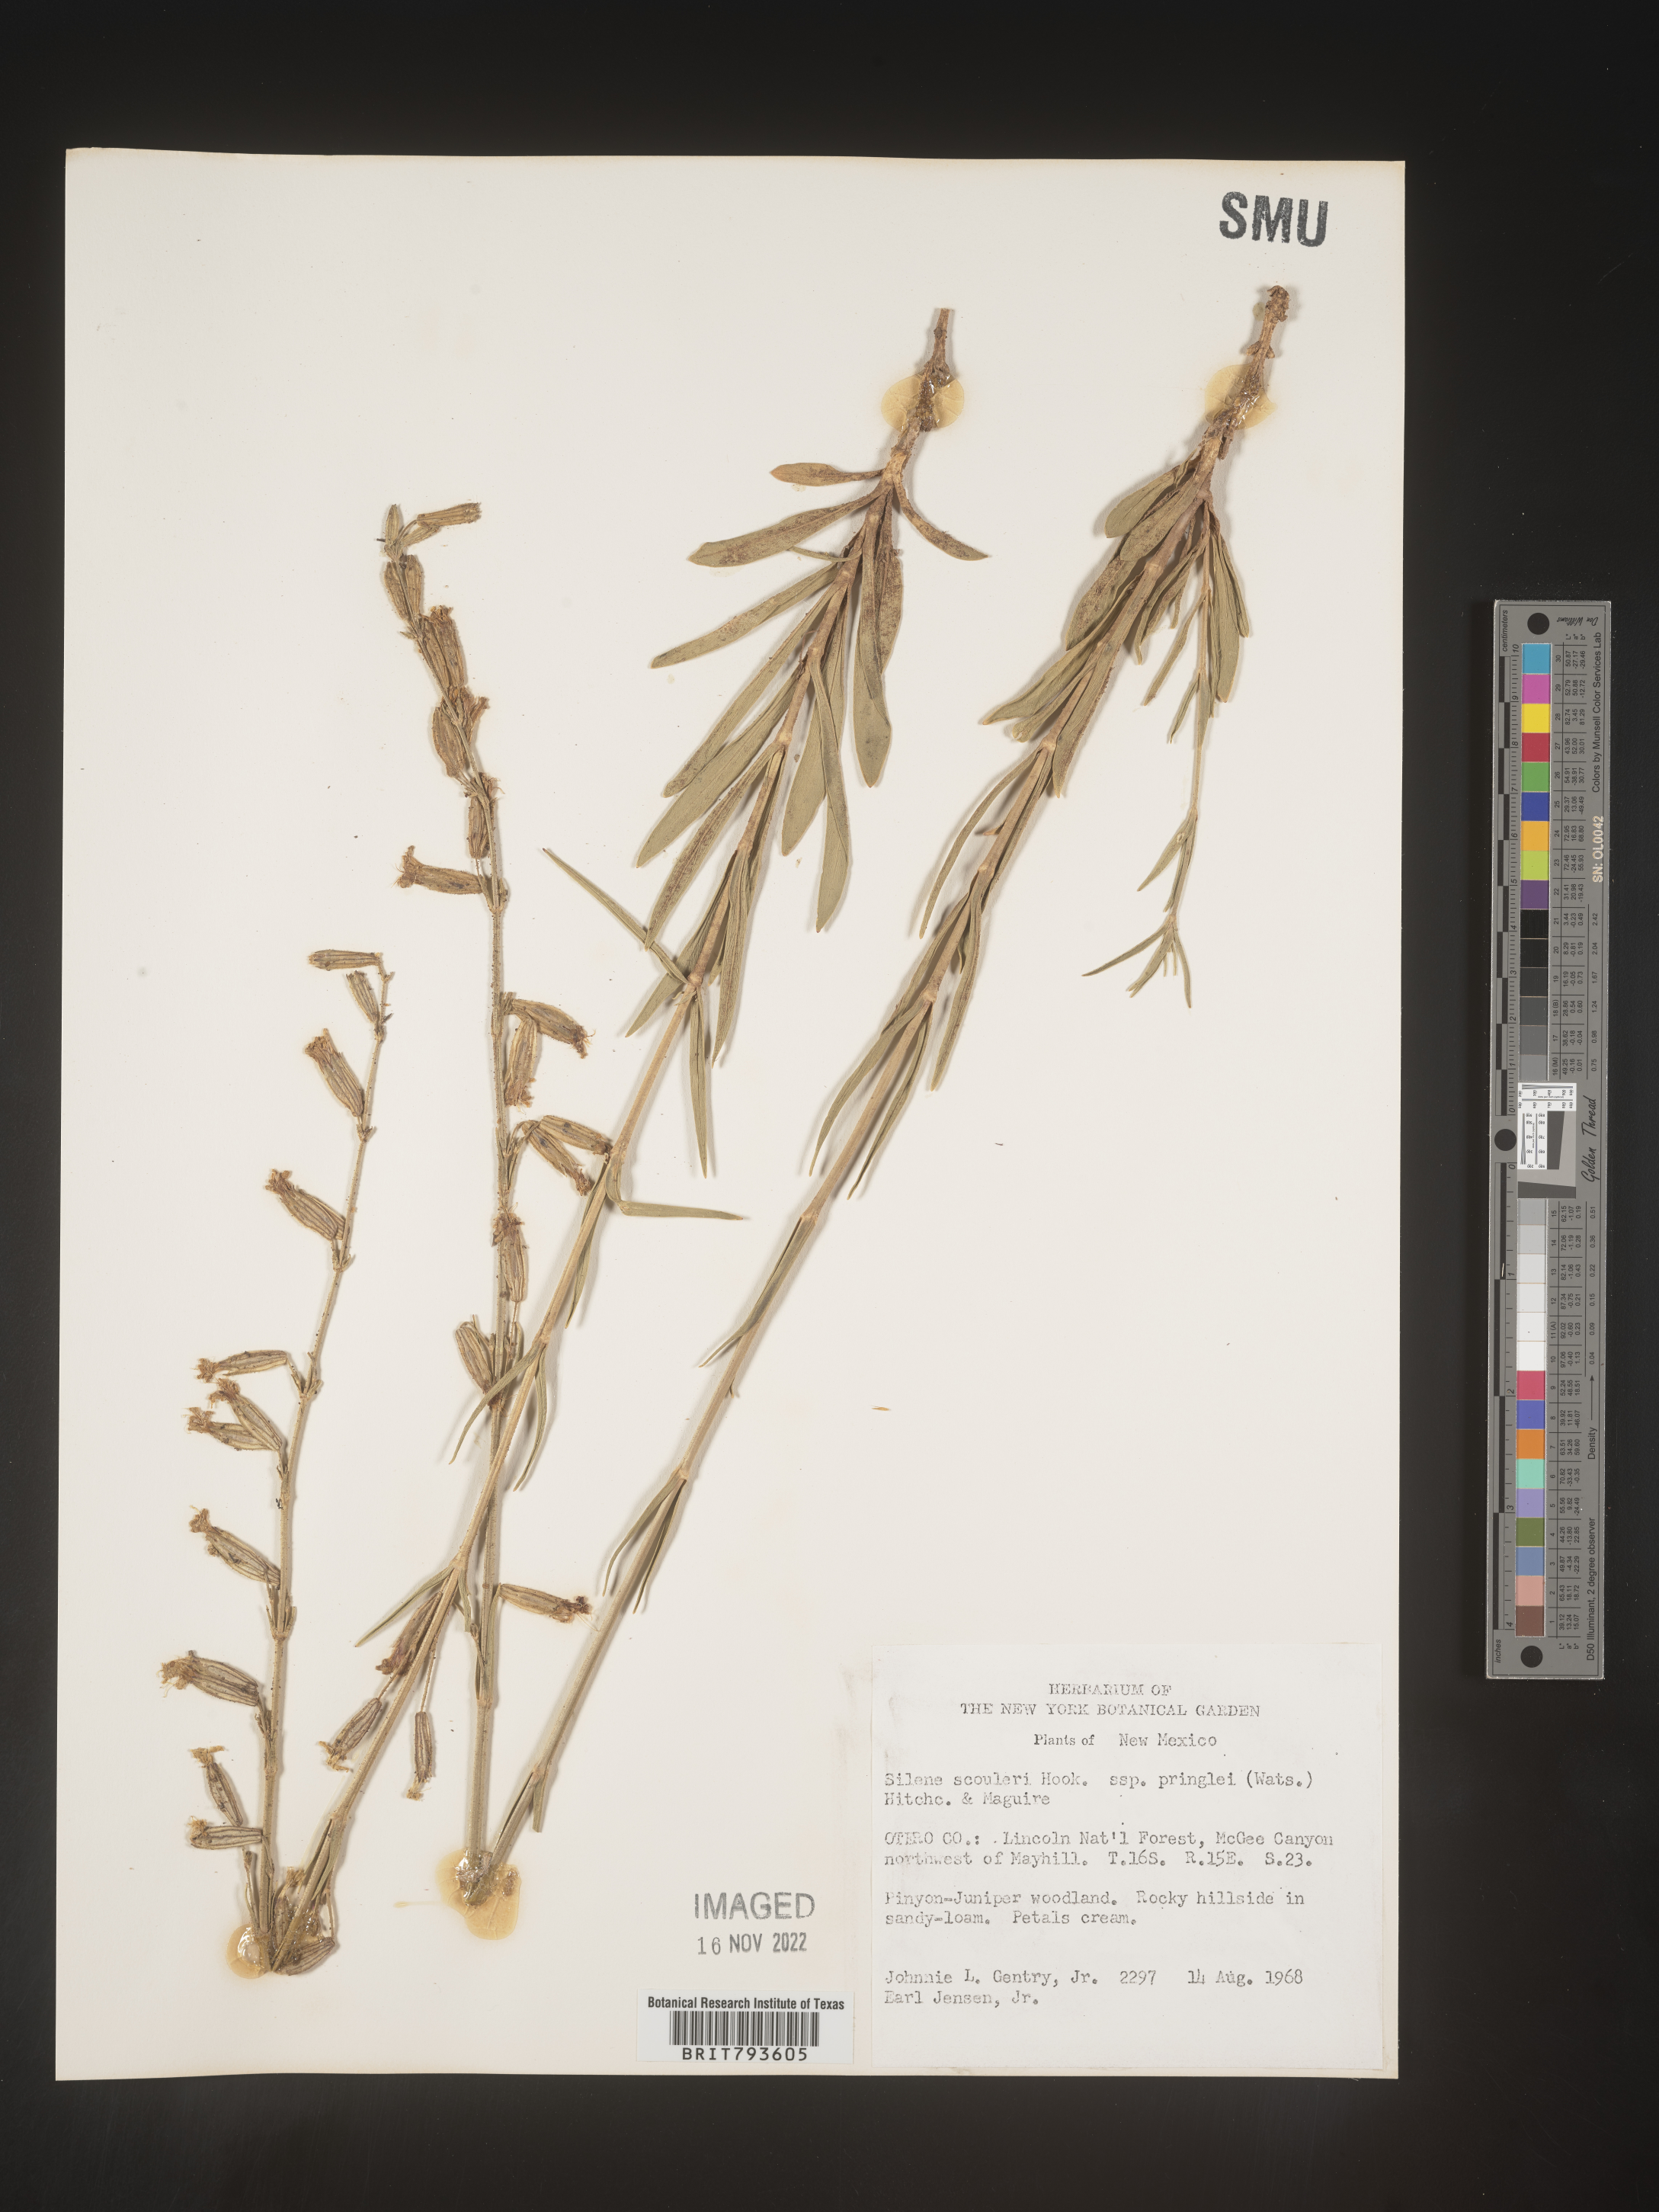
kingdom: Plantae
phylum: Tracheophyta
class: Magnoliopsida
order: Caryophyllales
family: Caryophyllaceae
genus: Silene
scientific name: Silene scouleri
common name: Scouler's campion
